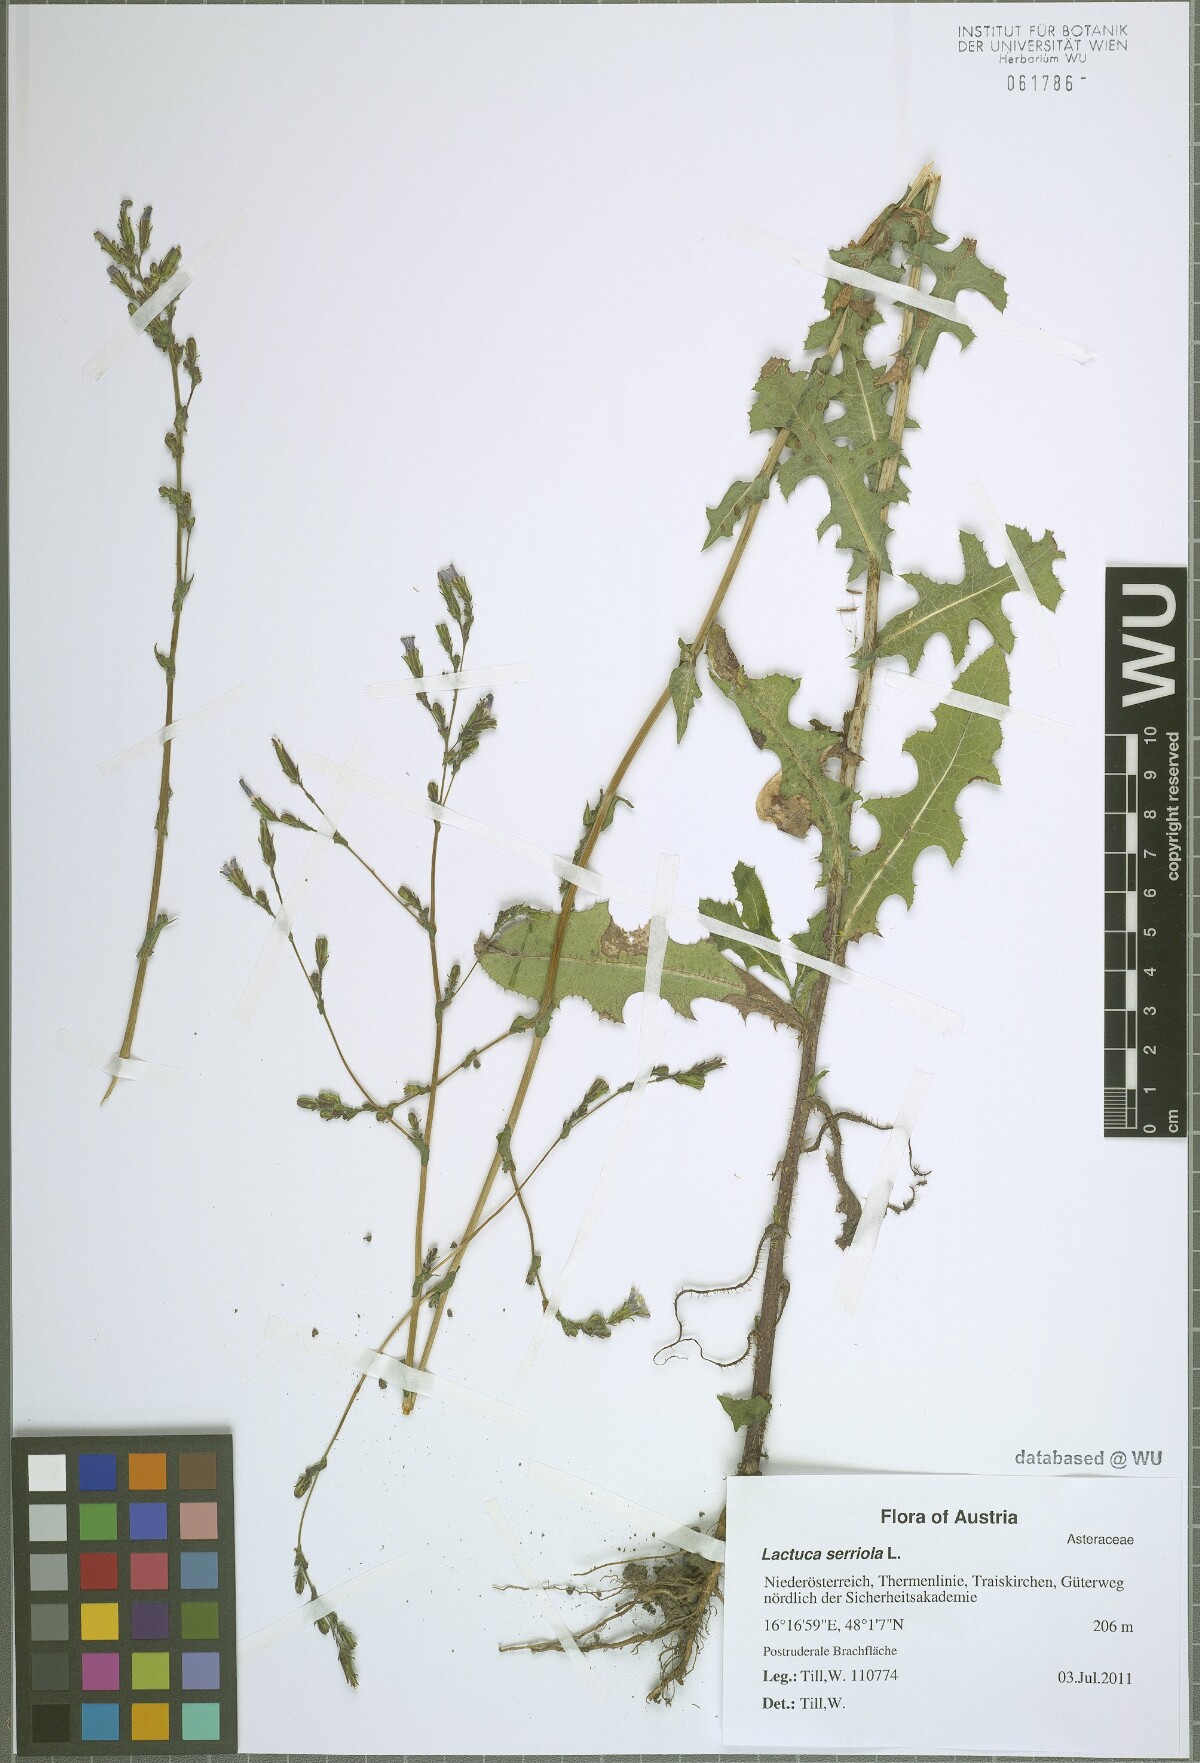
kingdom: Plantae
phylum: Tracheophyta
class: Magnoliopsida
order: Asterales
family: Asteraceae
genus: Lactuca
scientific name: Lactuca serriola
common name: Prickly lettuce
